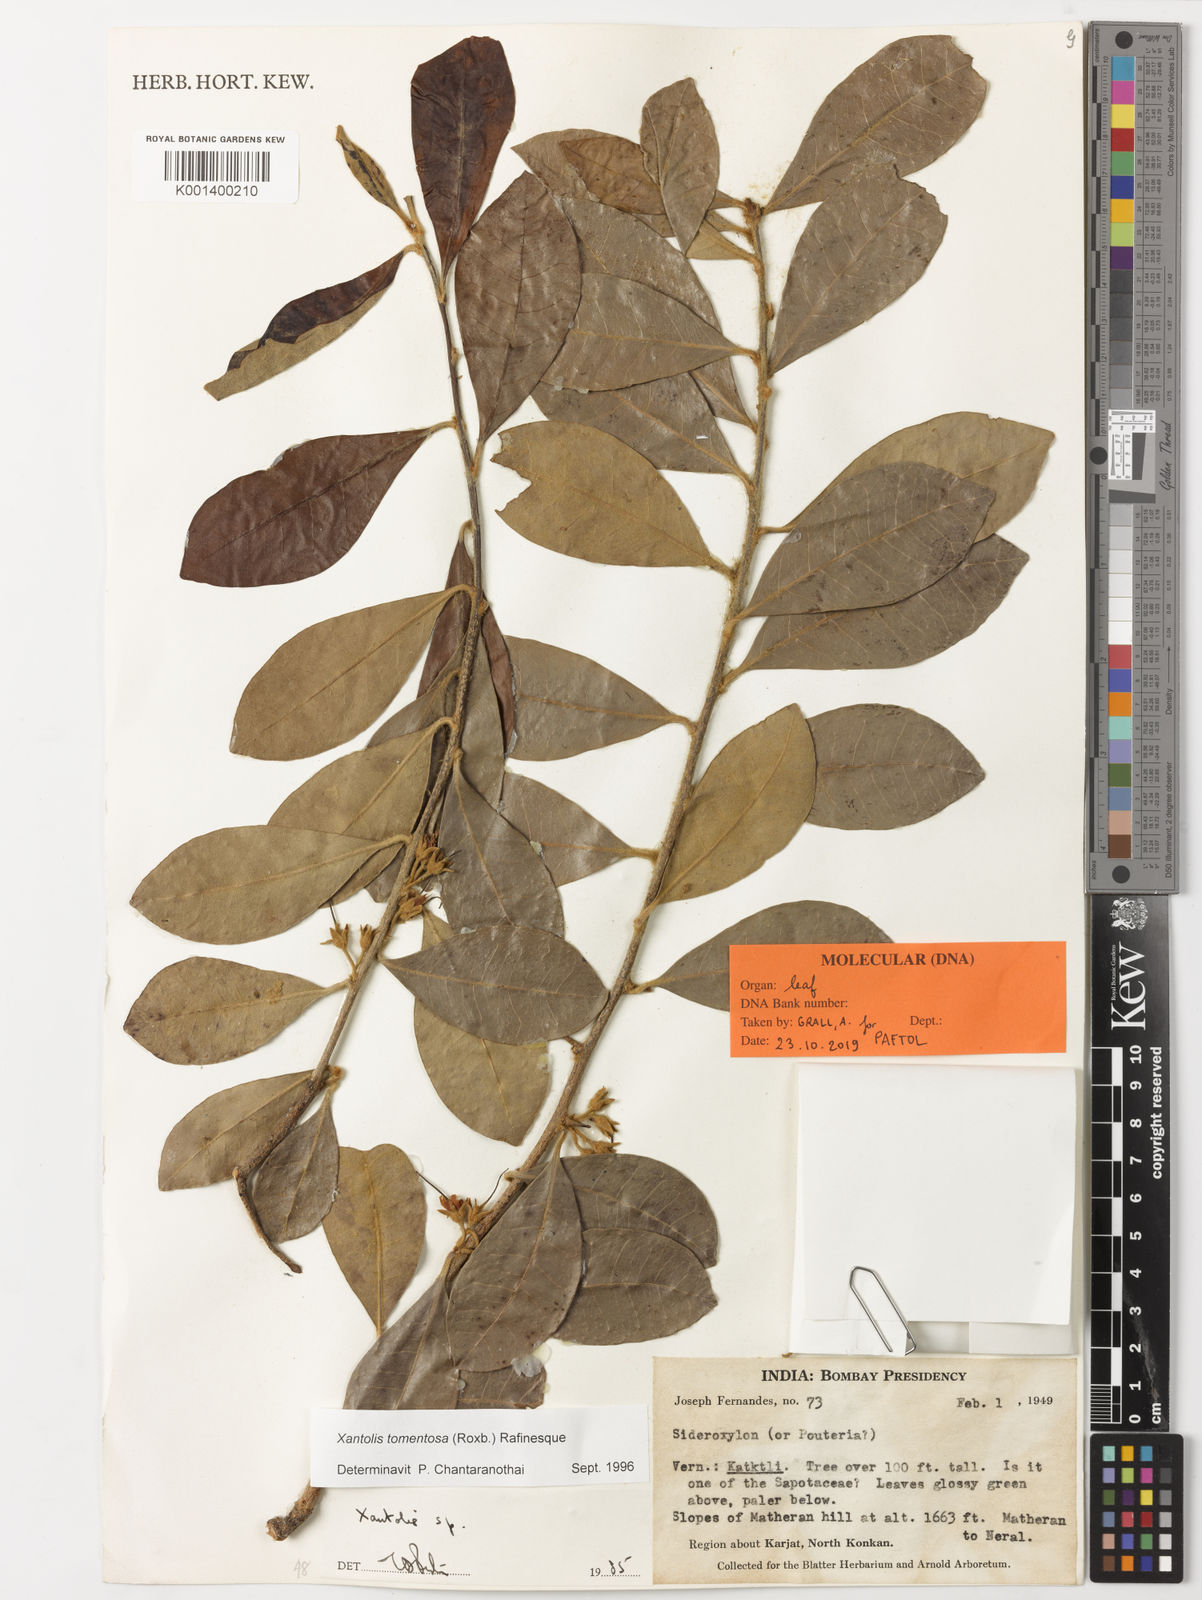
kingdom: Plantae
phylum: Tracheophyta
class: Magnoliopsida
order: Ericales
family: Sapotaceae
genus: Xantolis
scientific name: Xantolis tomentosa
